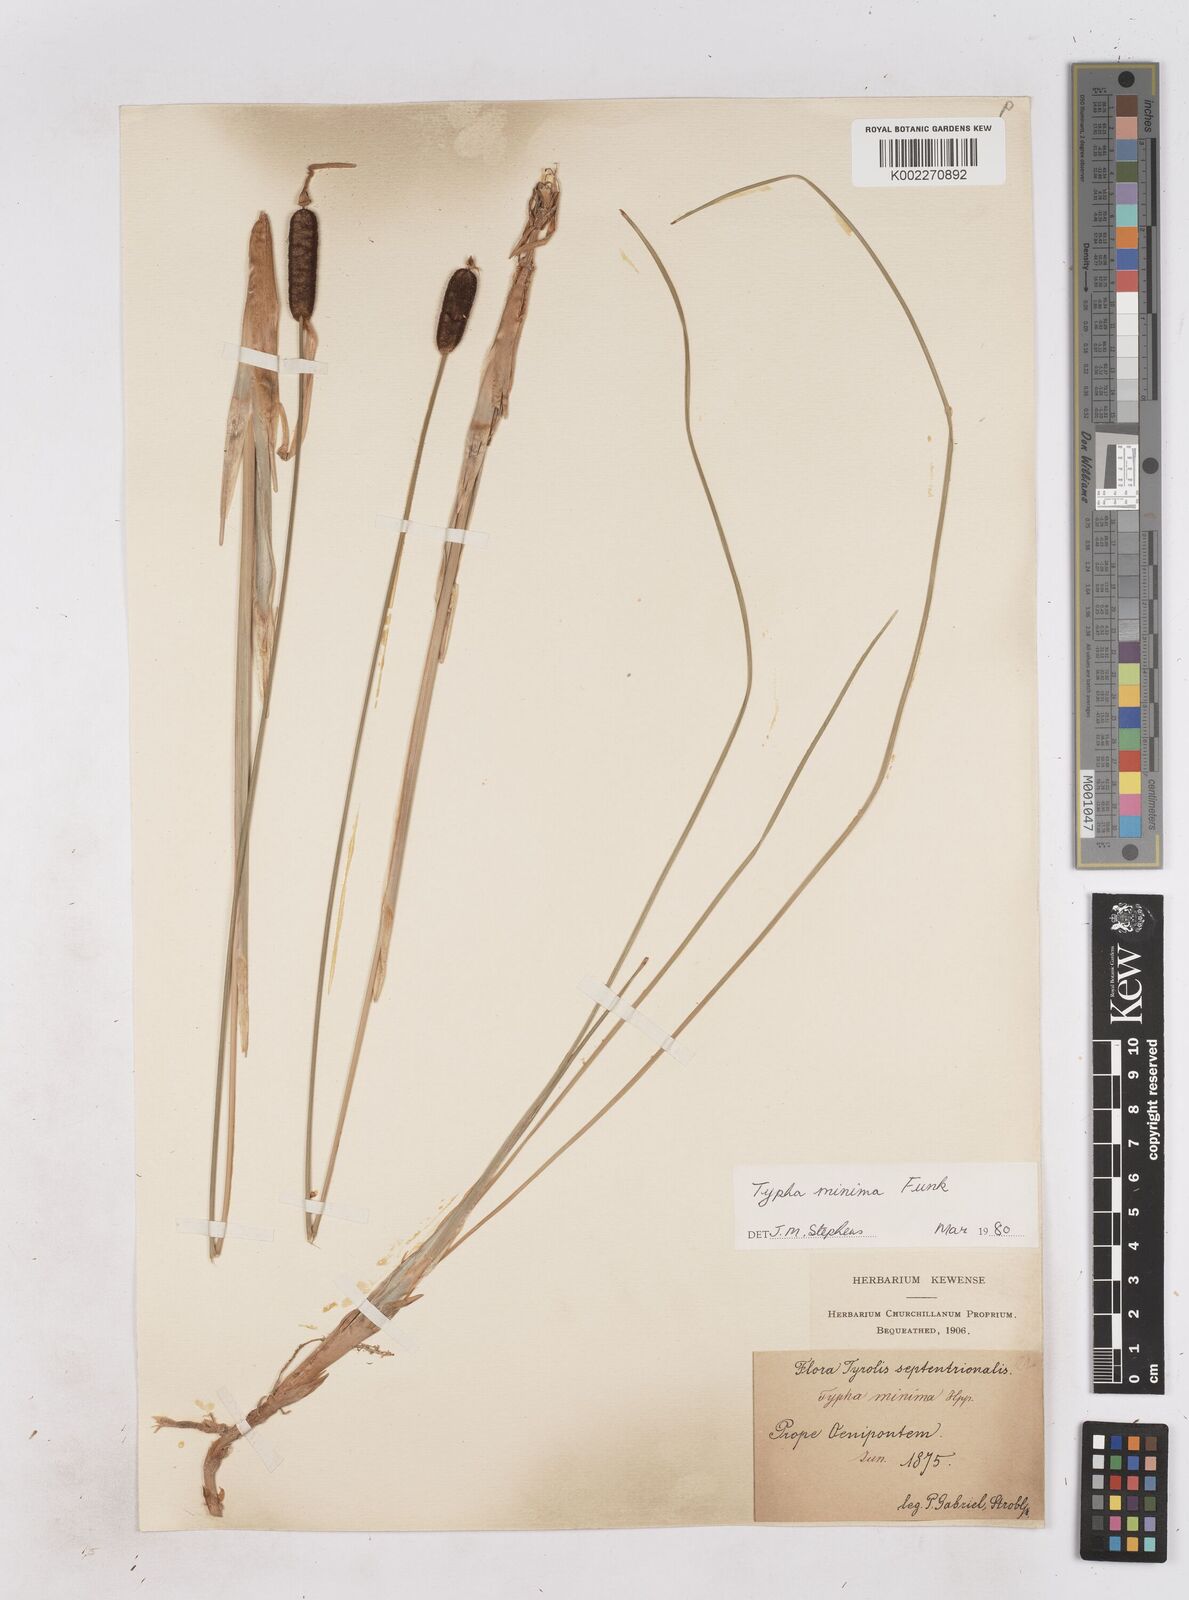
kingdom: Plantae
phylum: Tracheophyta
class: Liliopsida
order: Poales
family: Typhaceae
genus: Typha
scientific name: Typha minima
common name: Dwarf bulrush
